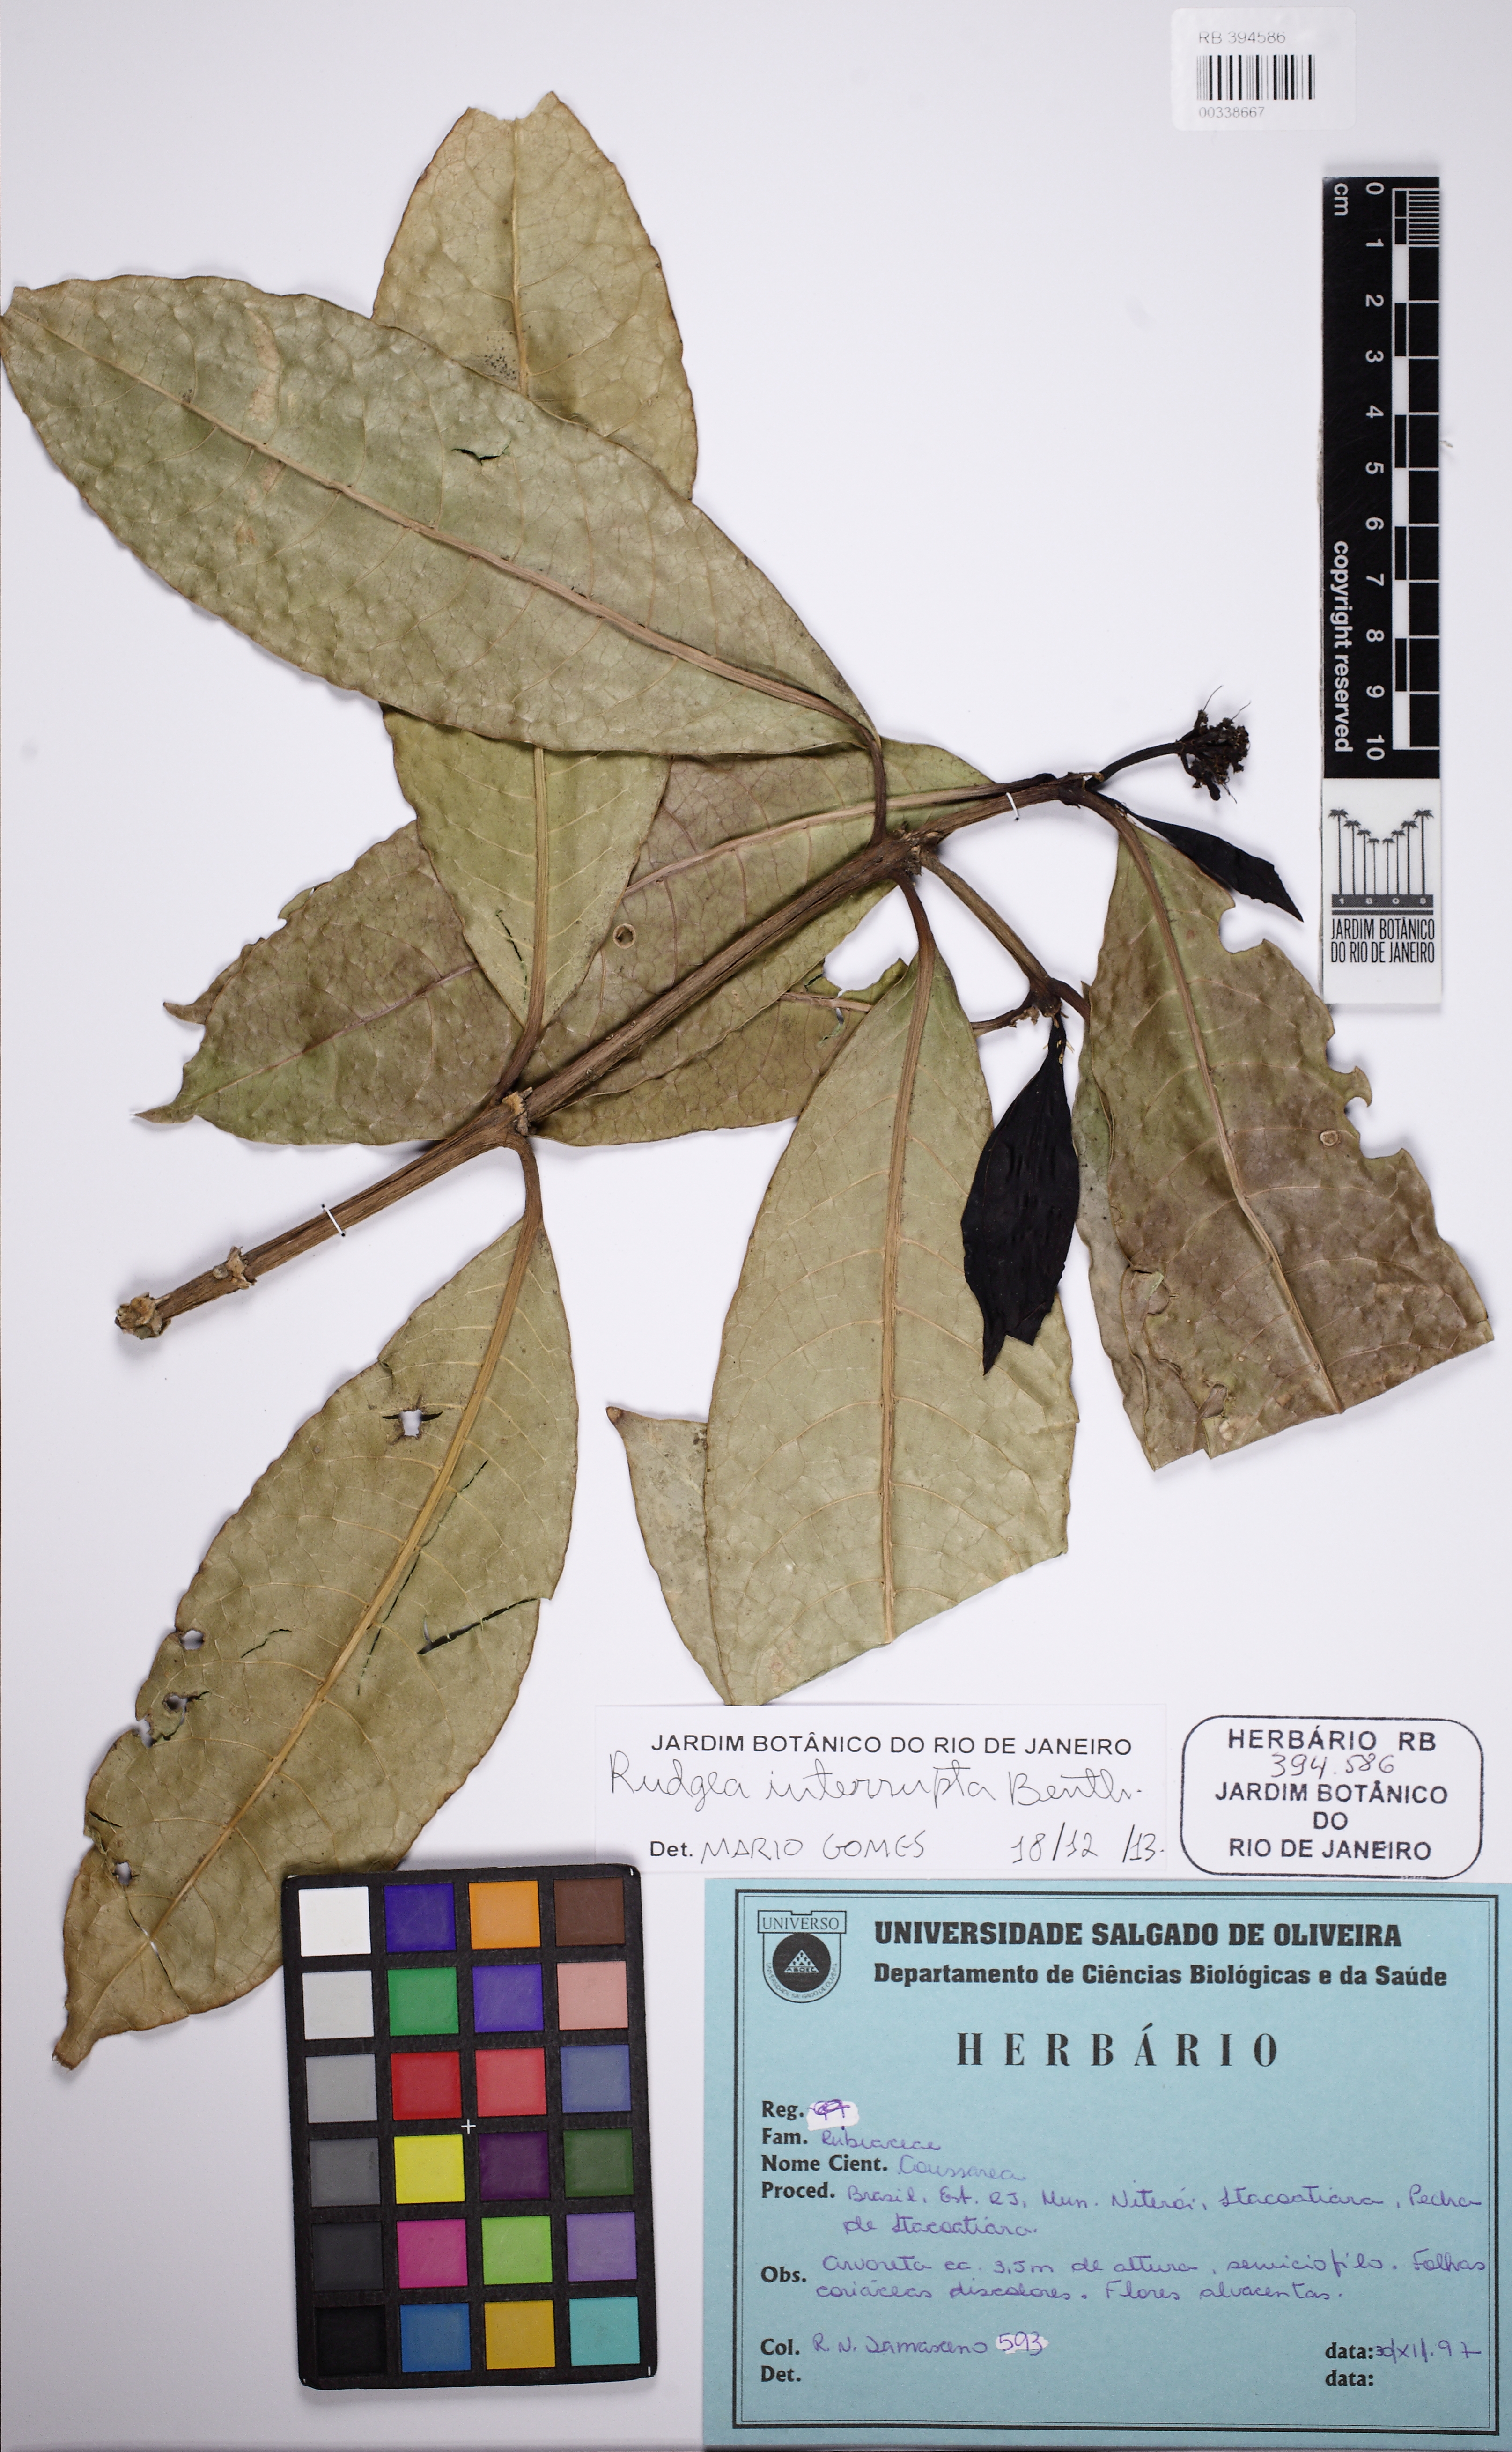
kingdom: Plantae
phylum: Tracheophyta
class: Magnoliopsida
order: Gentianales
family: Rubiaceae
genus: Rudgea
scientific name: Rudgea interrupta
